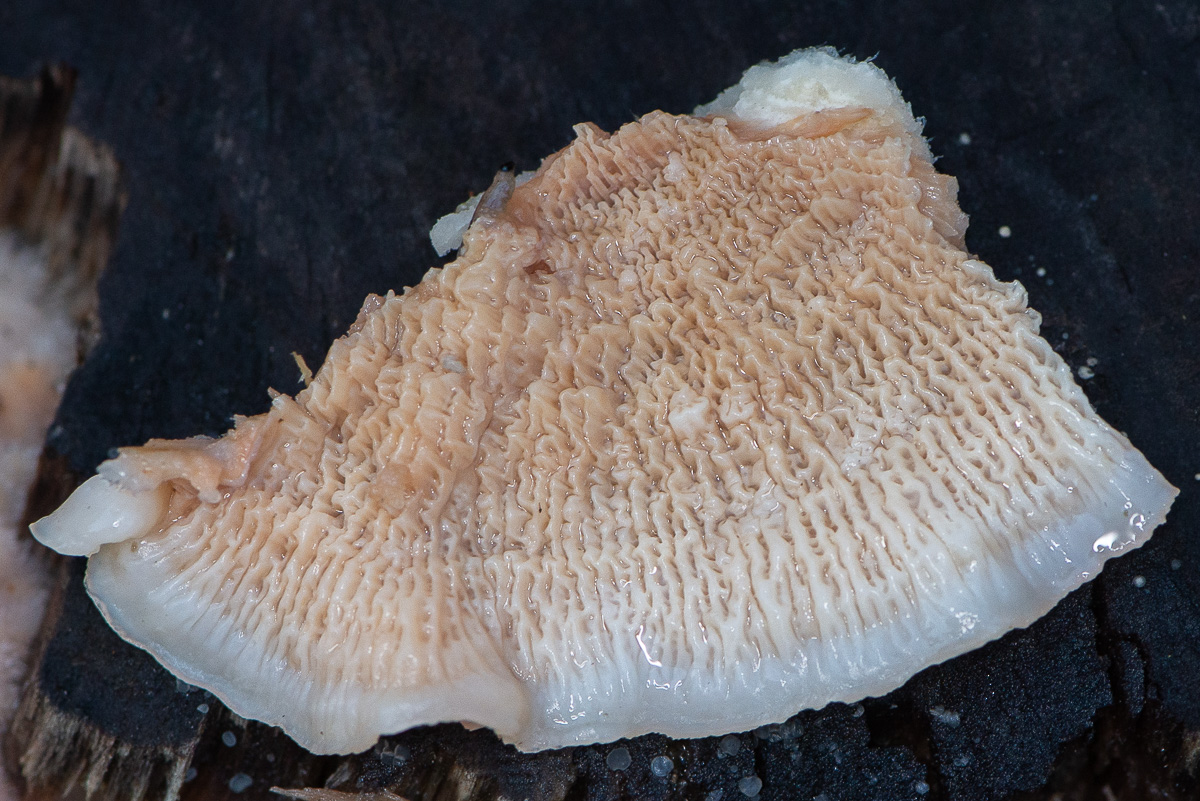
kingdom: Fungi
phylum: Basidiomycota
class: Agaricomycetes
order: Polyporales
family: Meruliaceae
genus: Phlebia
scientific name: Phlebia tremellosa
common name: bævrende åresvamp
